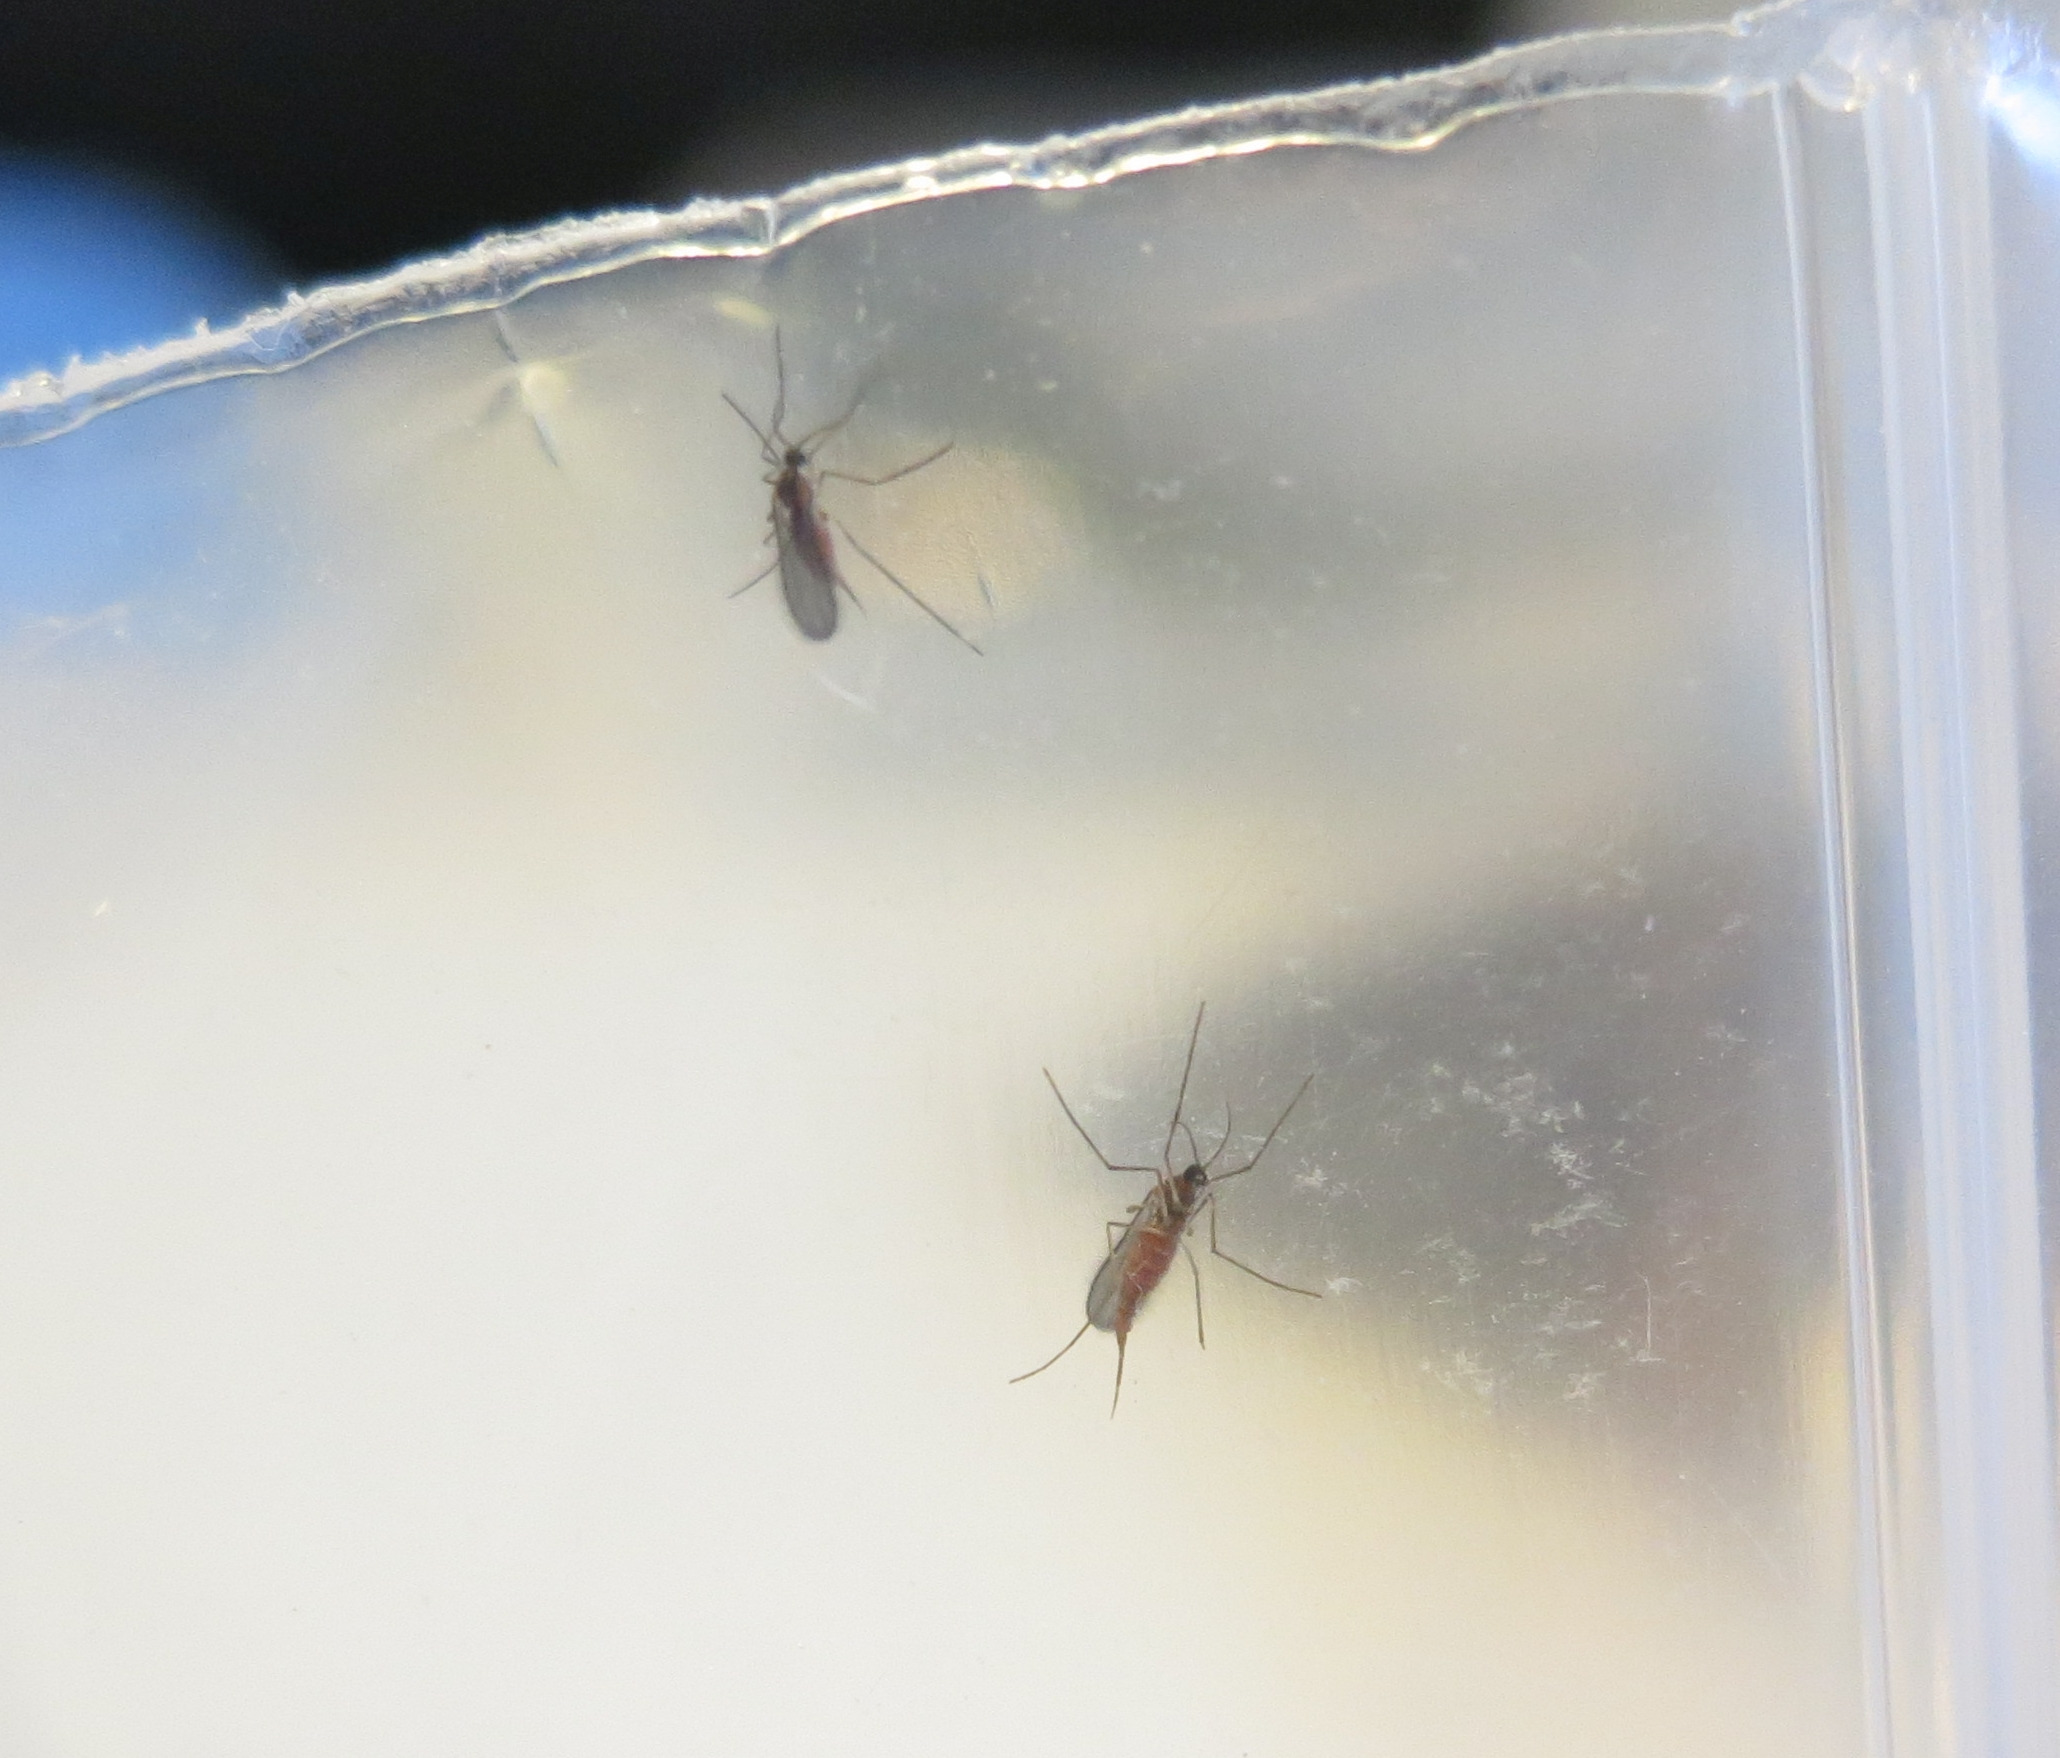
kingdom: Animalia
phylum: Arthropoda
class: Insecta
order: Diptera
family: Cecidomyiidae
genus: Dasineura
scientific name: Dasineura inflata
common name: Syltstargalmyg
